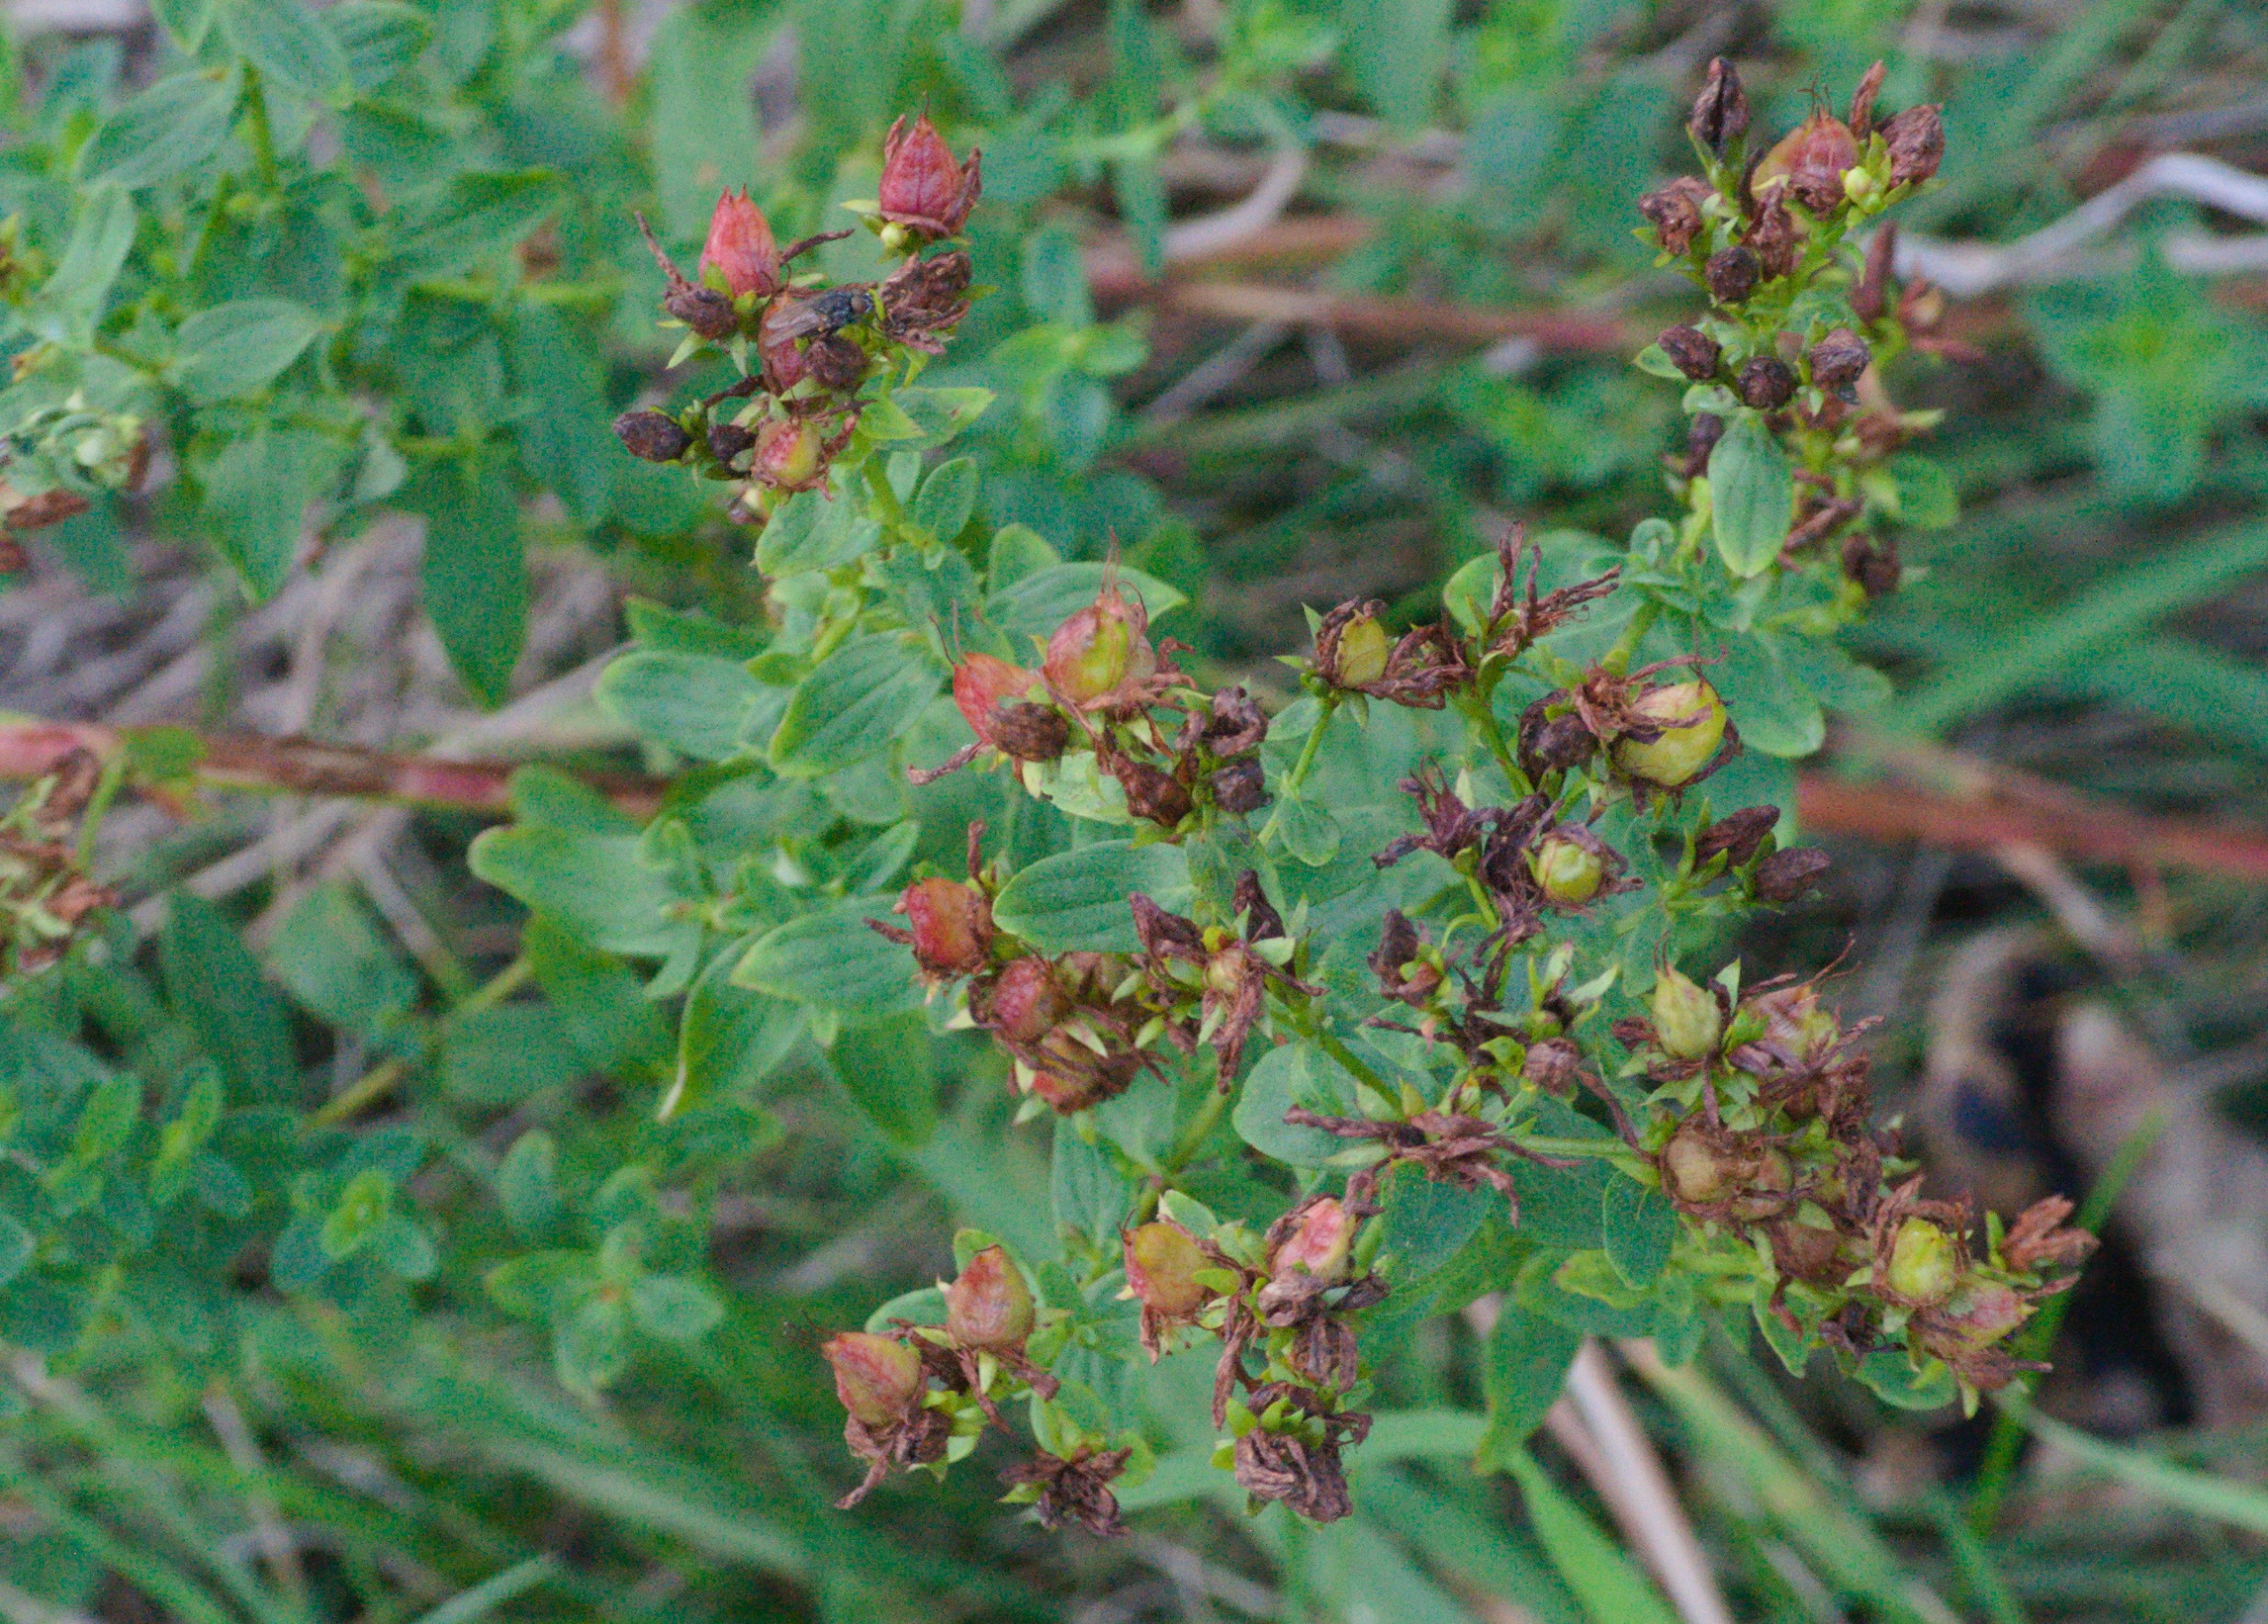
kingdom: Plantae
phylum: Tracheophyta
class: Magnoliopsida
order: Malpighiales
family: Hypericaceae
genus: Hypericum
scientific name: Hypericum
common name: Perikonslægten
